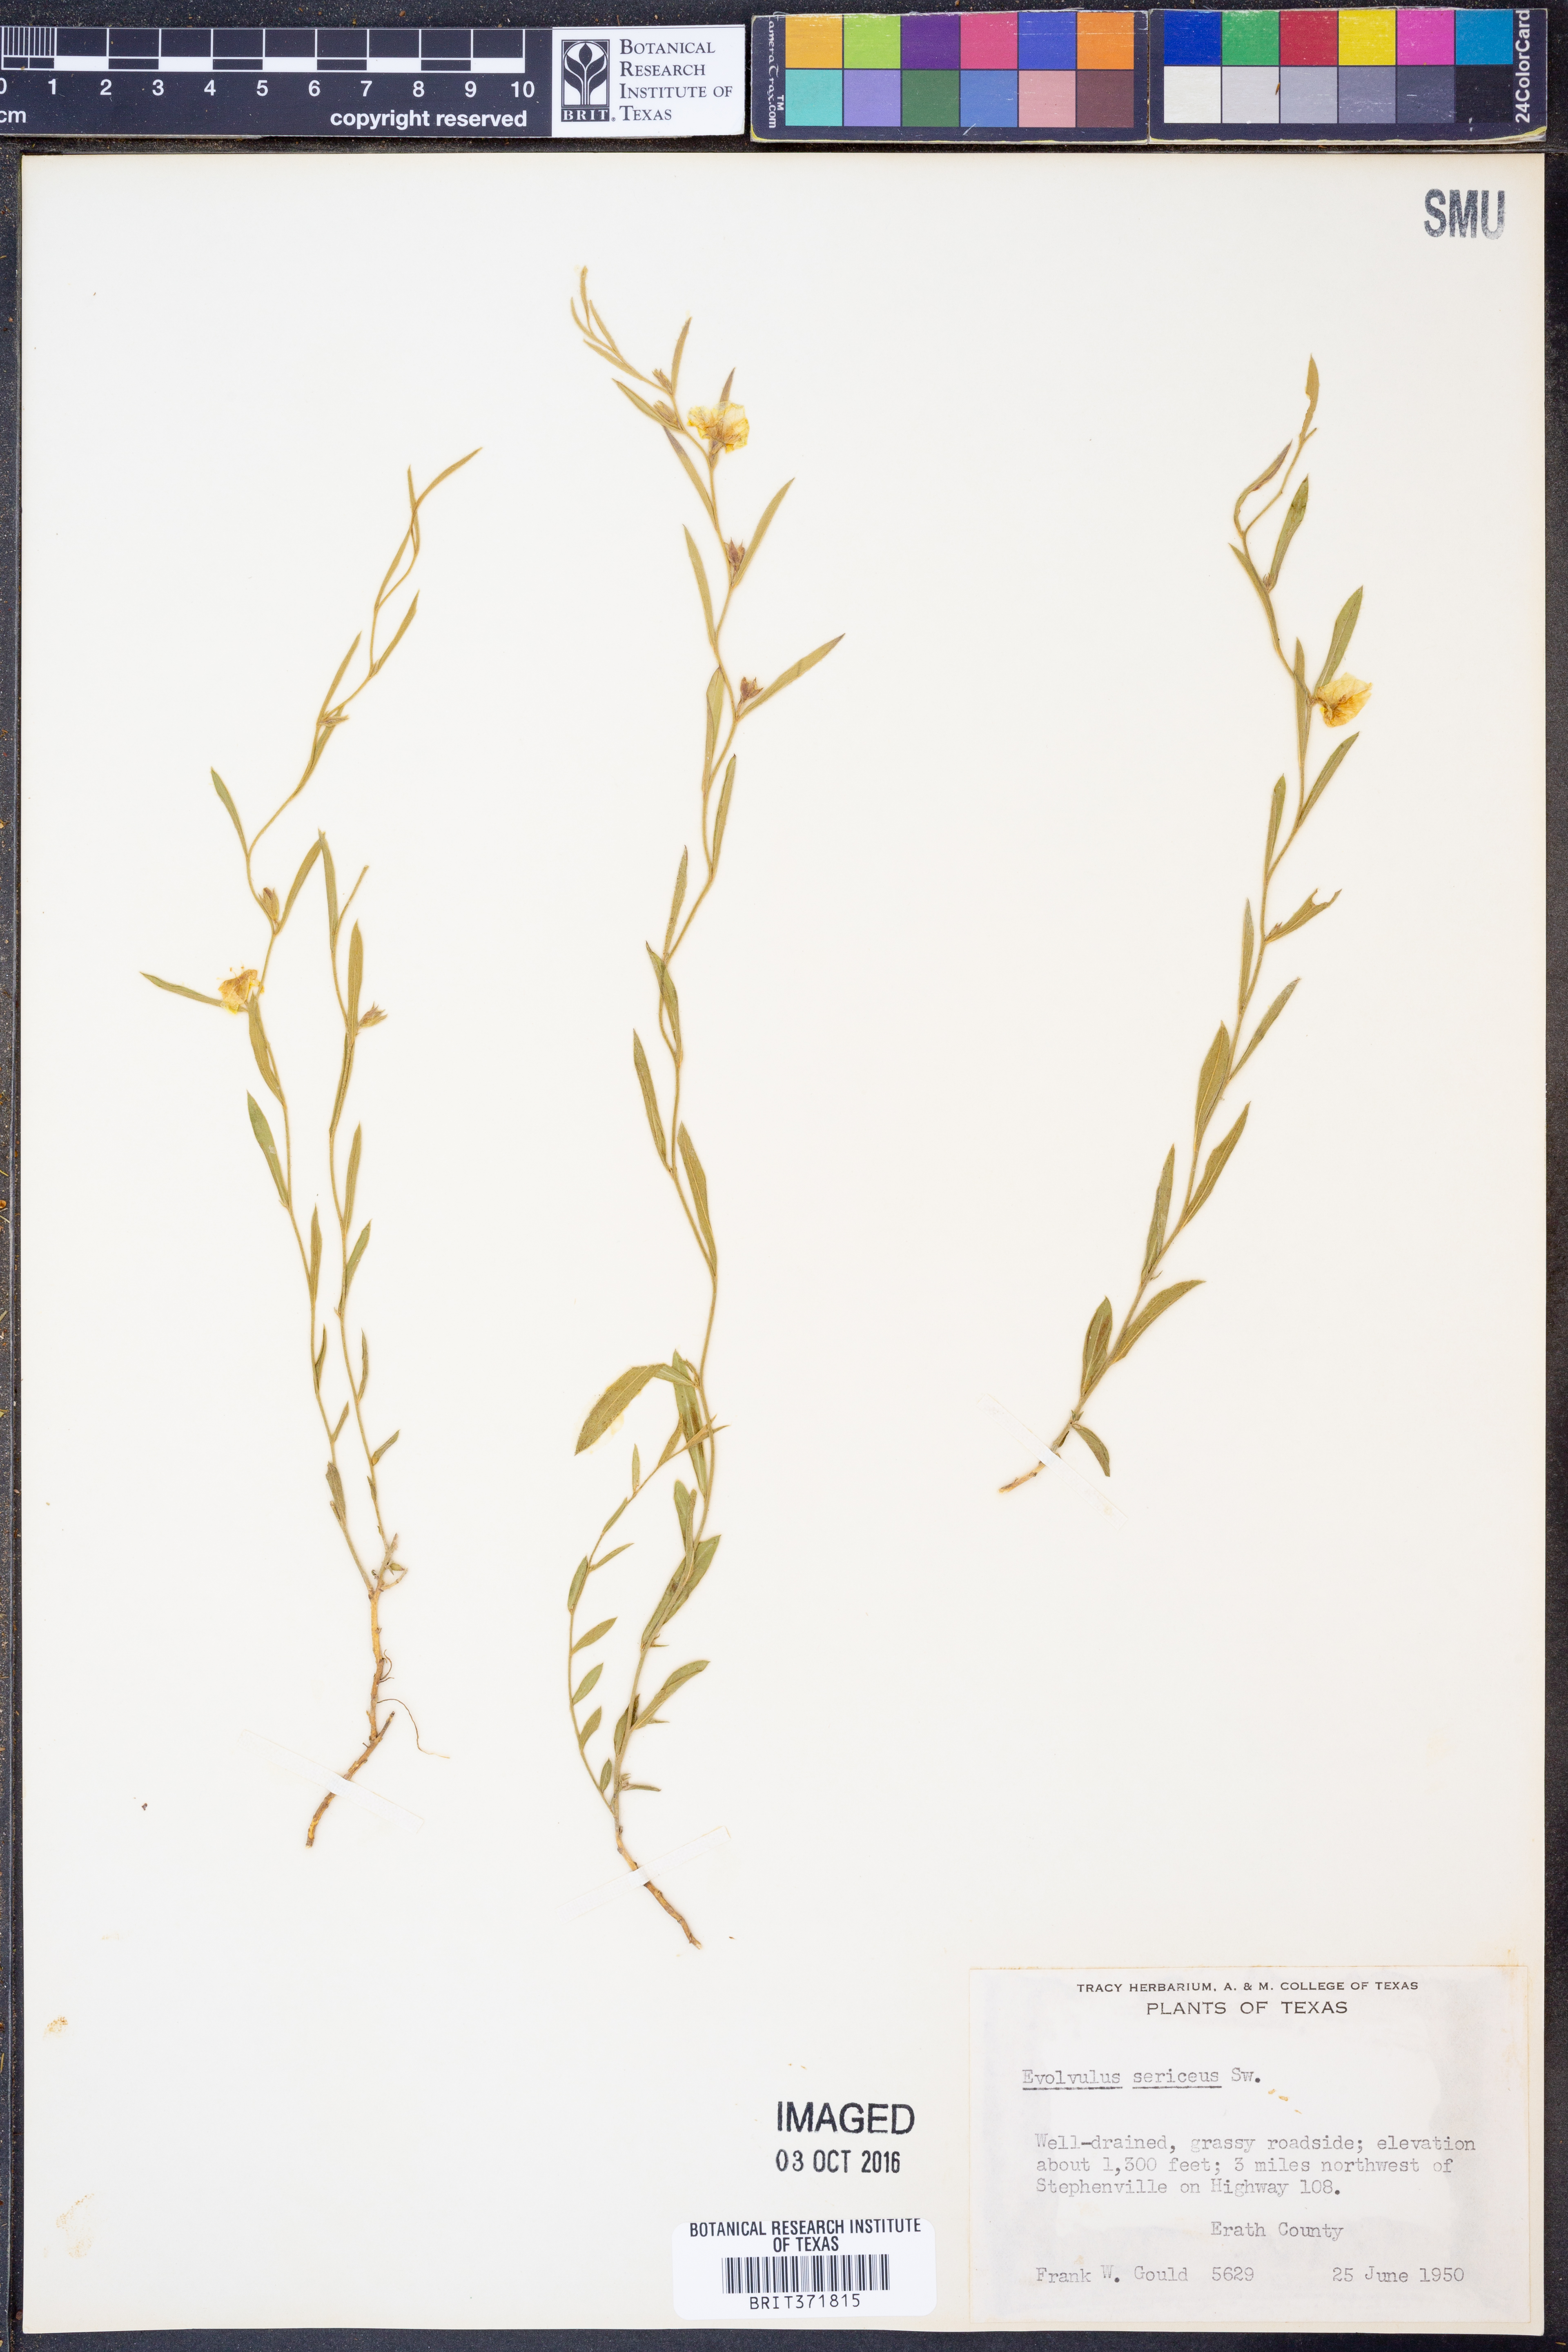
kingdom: Plantae
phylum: Tracheophyta
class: Magnoliopsida
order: Solanales
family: Convolvulaceae
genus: Evolvulus
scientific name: Evolvulus sericeus
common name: Blue dots
